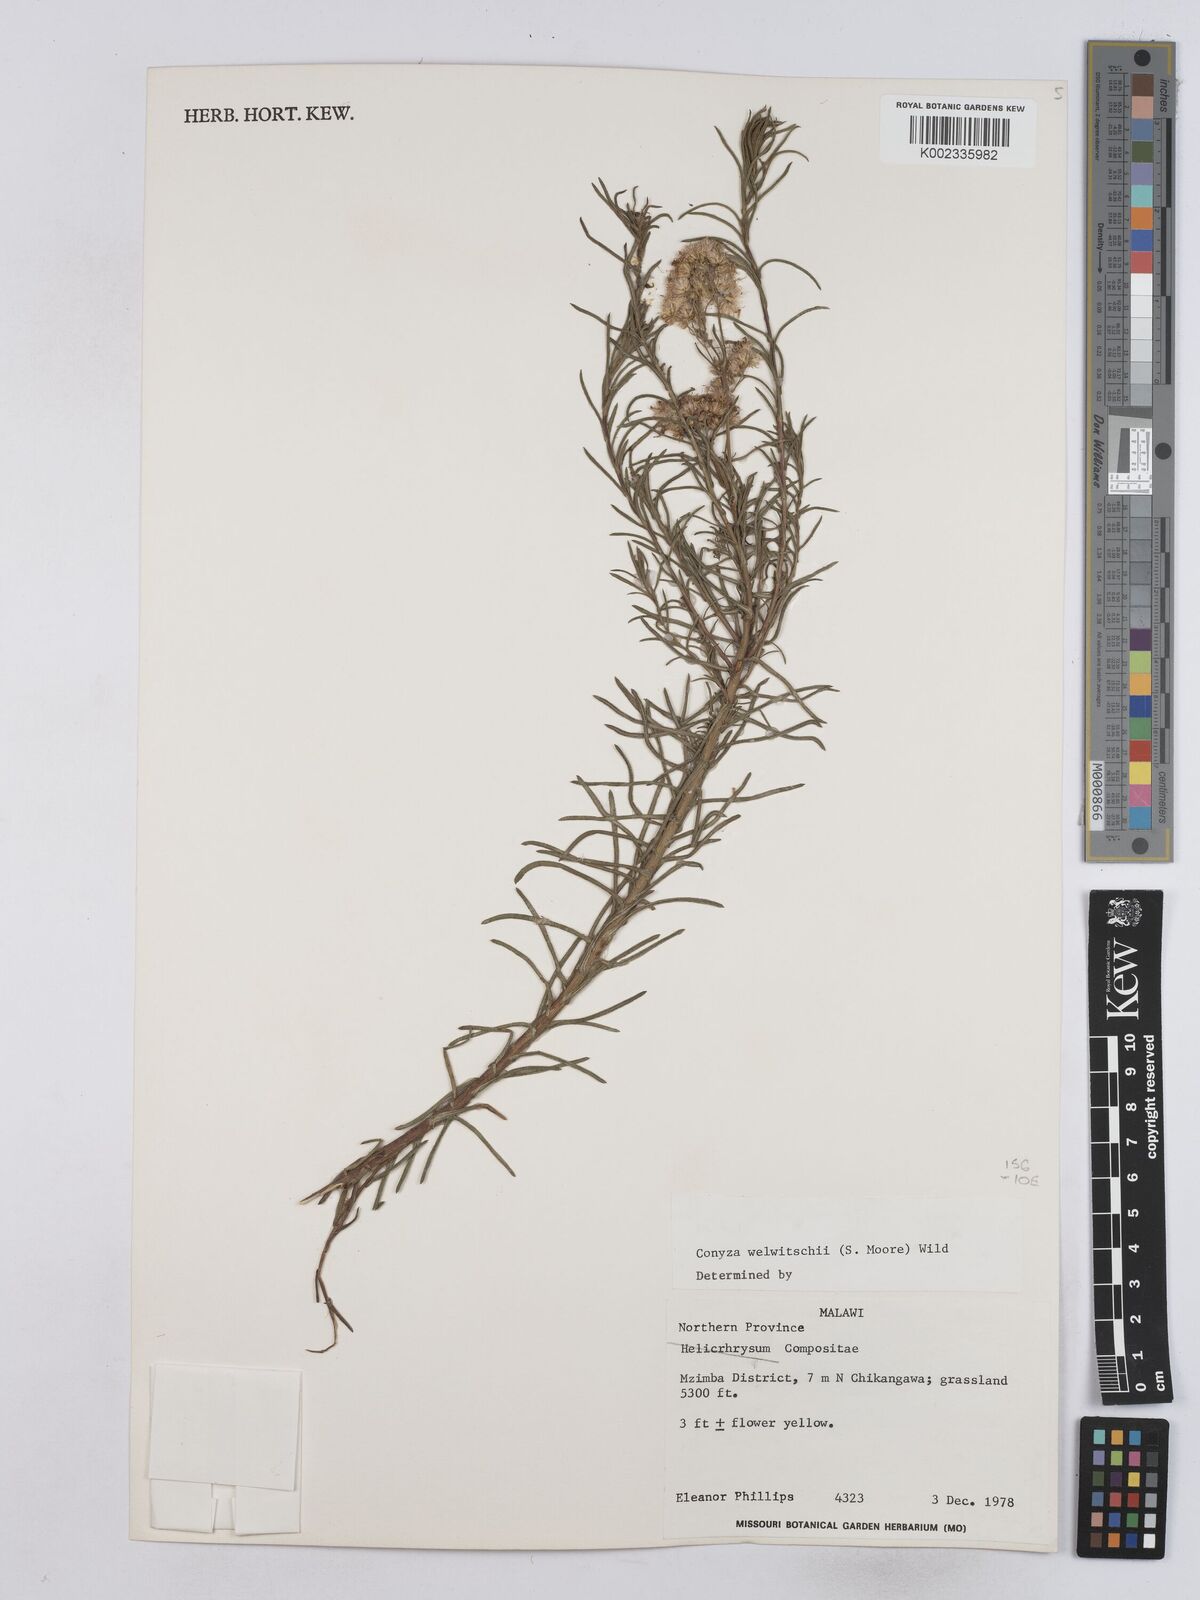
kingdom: Plantae
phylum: Tracheophyta
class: Magnoliopsida
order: Asterales
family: Asteraceae
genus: Nidorella
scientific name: Nidorella welwitschii
